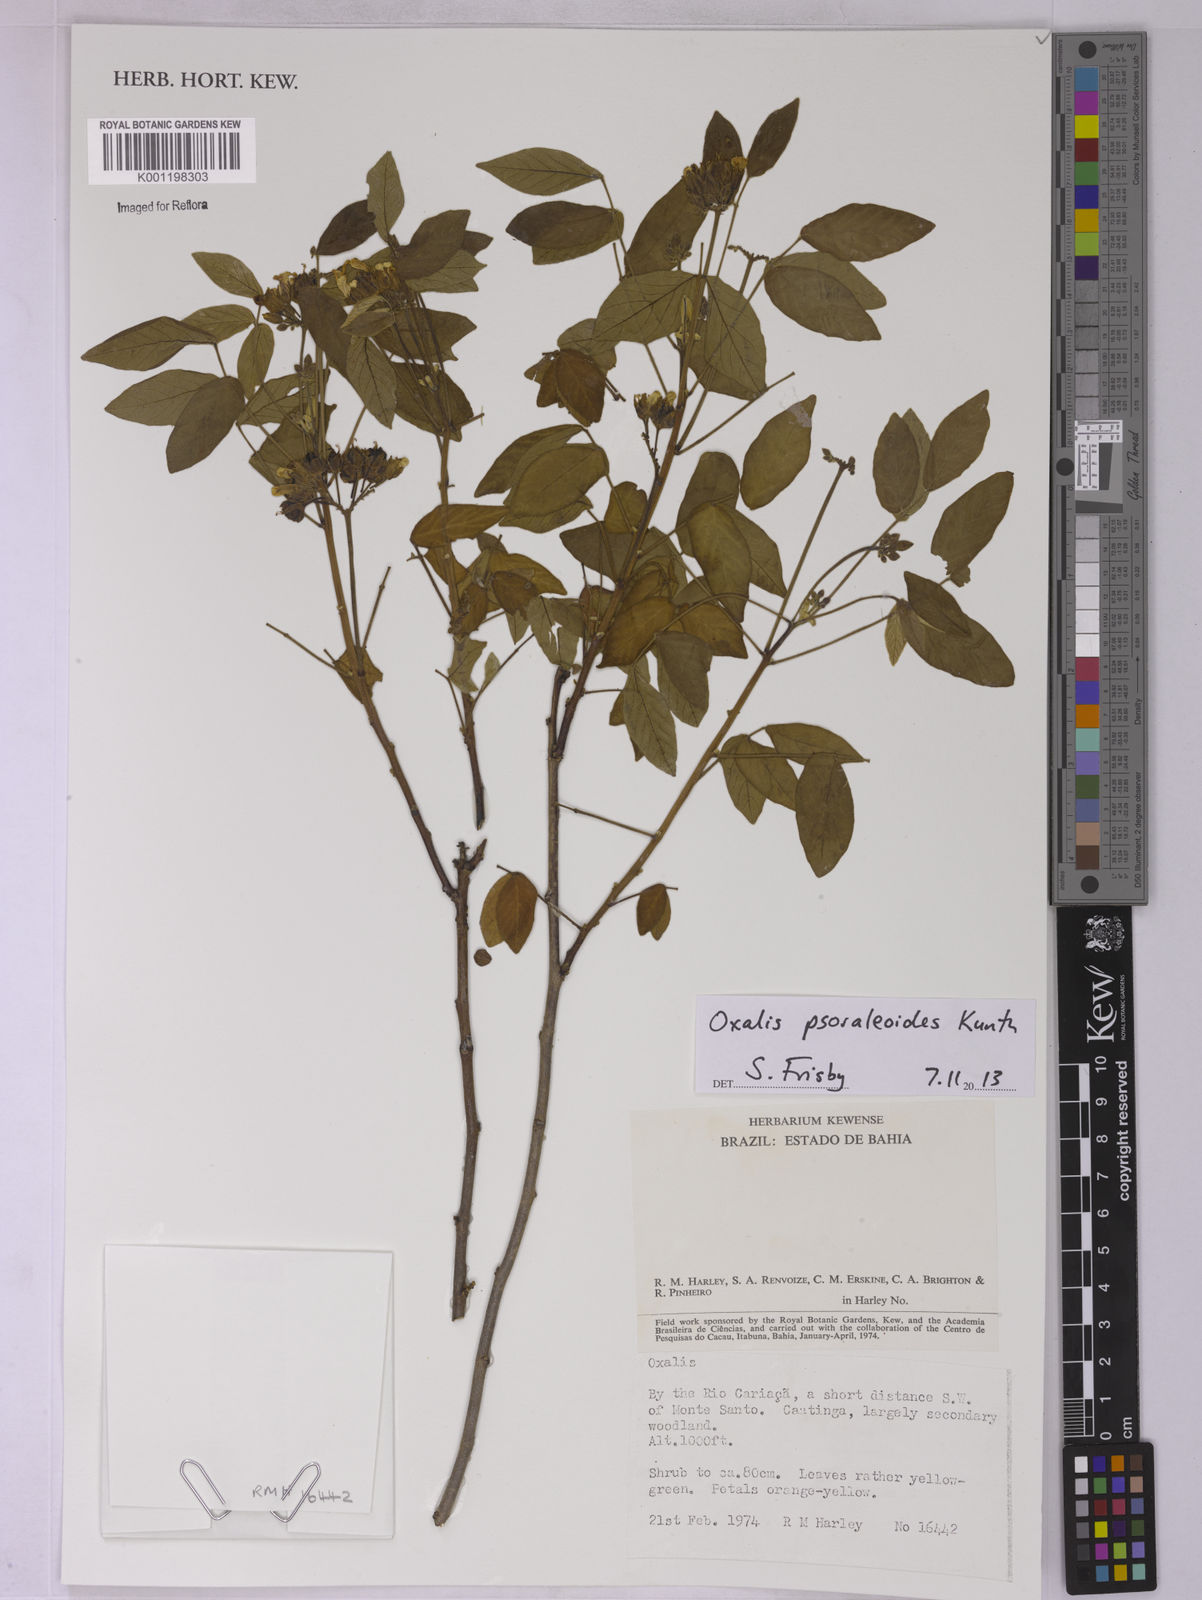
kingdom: Plantae
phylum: Tracheophyta
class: Magnoliopsida
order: Oxalidales
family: Oxalidaceae
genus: Oxalis
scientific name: Oxalis psoraleoides
